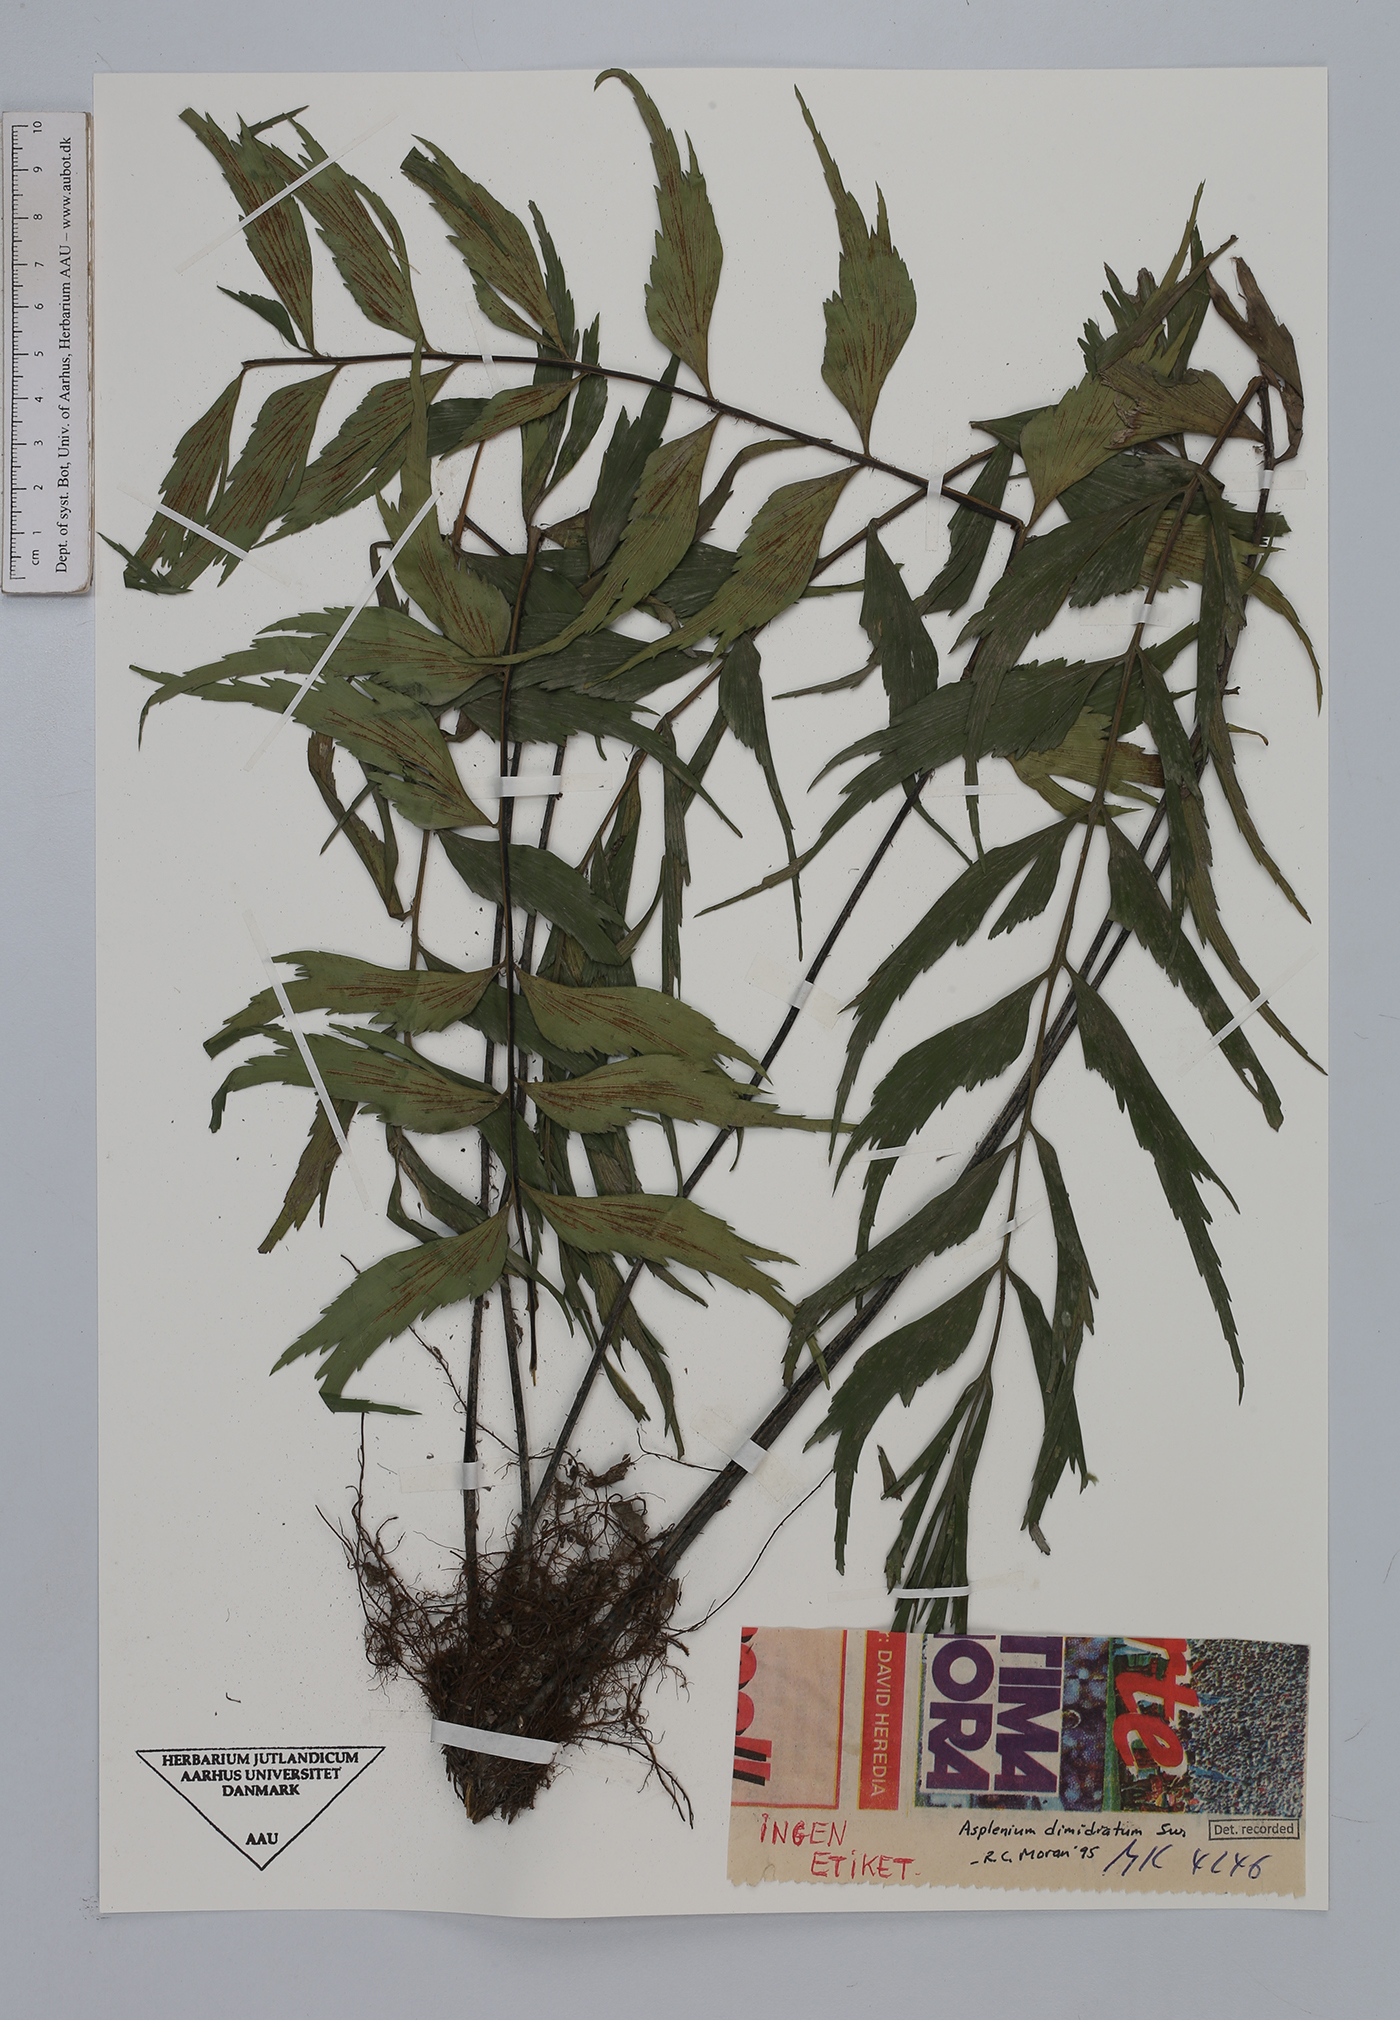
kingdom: Plantae
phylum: Tracheophyta
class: Polypodiopsida
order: Polypodiales
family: Aspleniaceae
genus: Asplenium
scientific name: Asplenium dimidiatum
